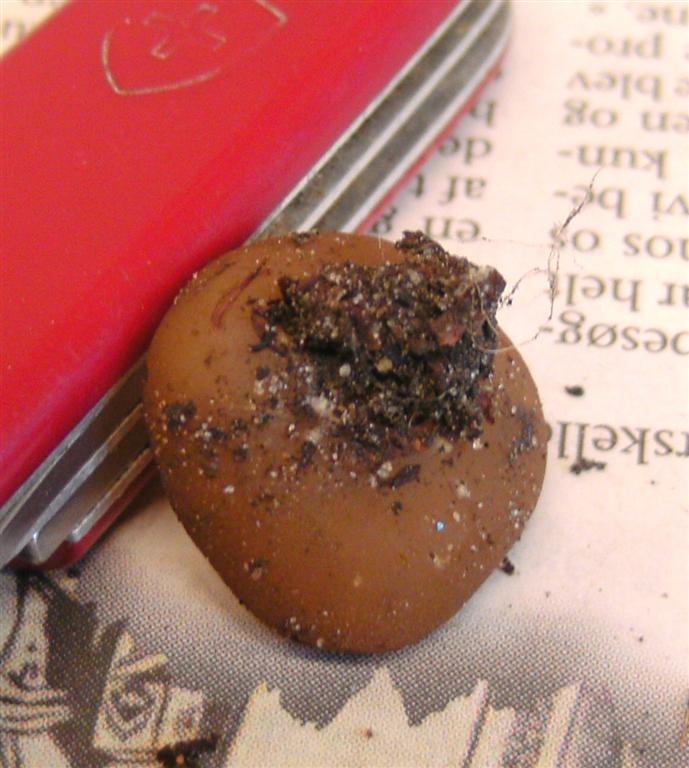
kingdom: Fungi
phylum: Ascomycota
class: Pezizomycetes
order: Pezizales
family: Pezizaceae
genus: Paragalactinia
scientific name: Paragalactinia michelii
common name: gulkødet bægersvamp
